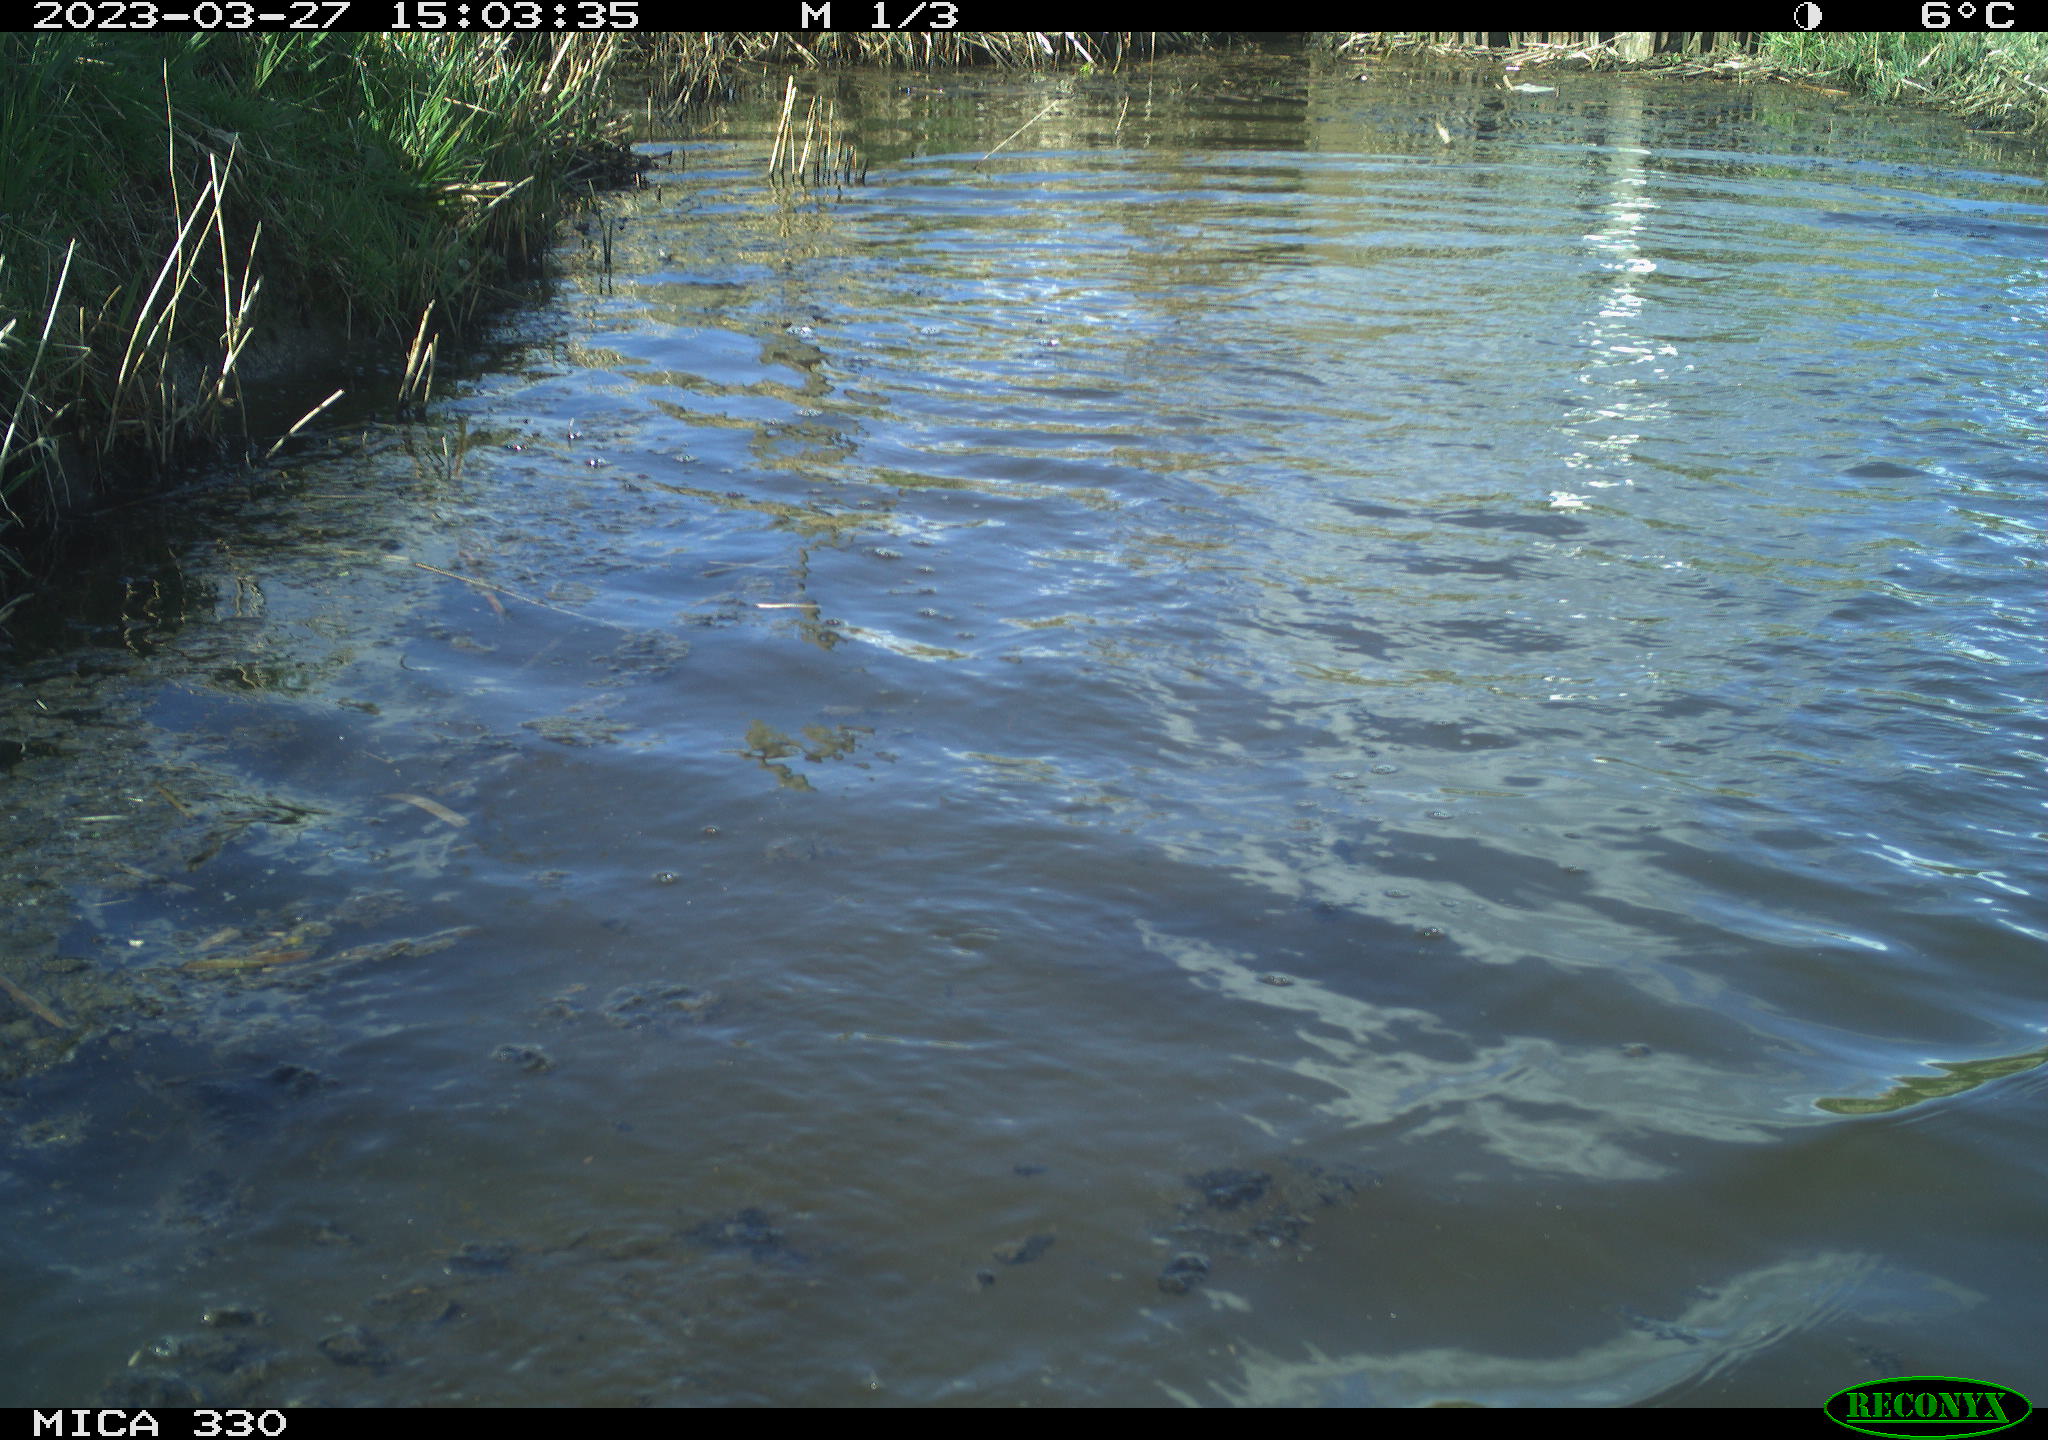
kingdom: Animalia
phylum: Chordata
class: Aves
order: Anseriformes
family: Anatidae
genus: Anas
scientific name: Anas
